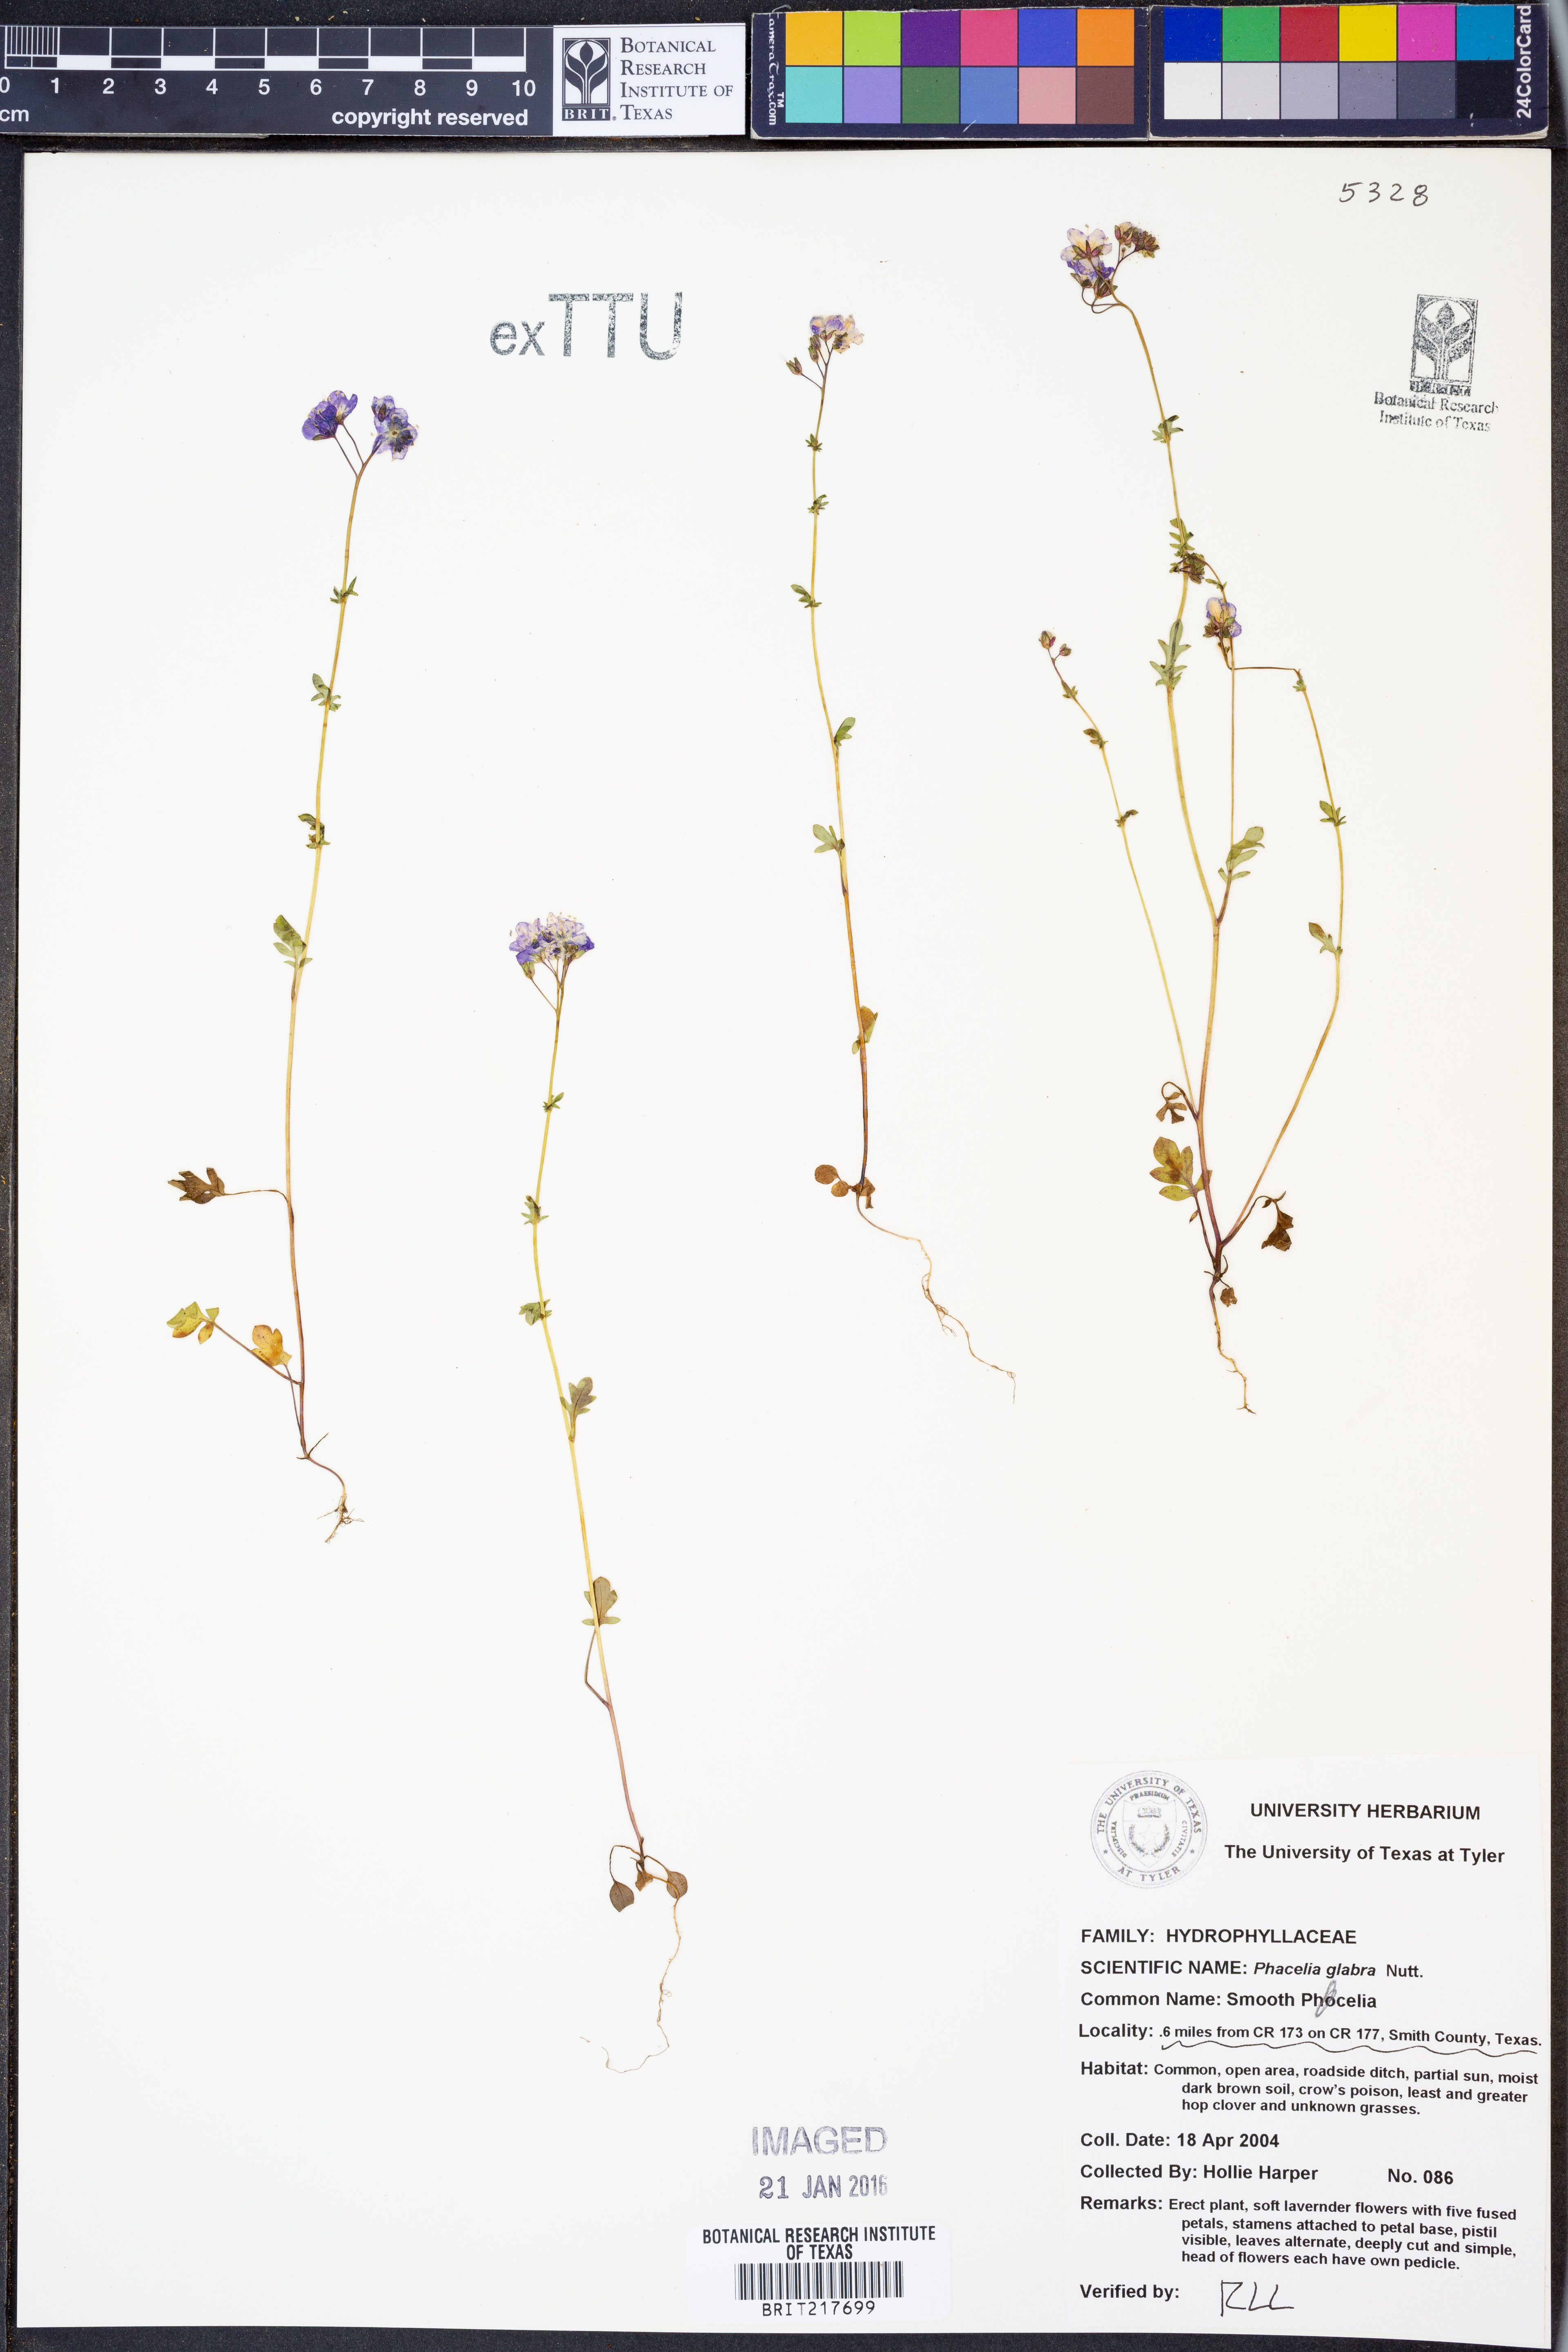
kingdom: Plantae
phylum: Tracheophyta
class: Magnoliopsida
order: Boraginales
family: Hydrophyllaceae
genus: Phacelia
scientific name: Phacelia glabra
